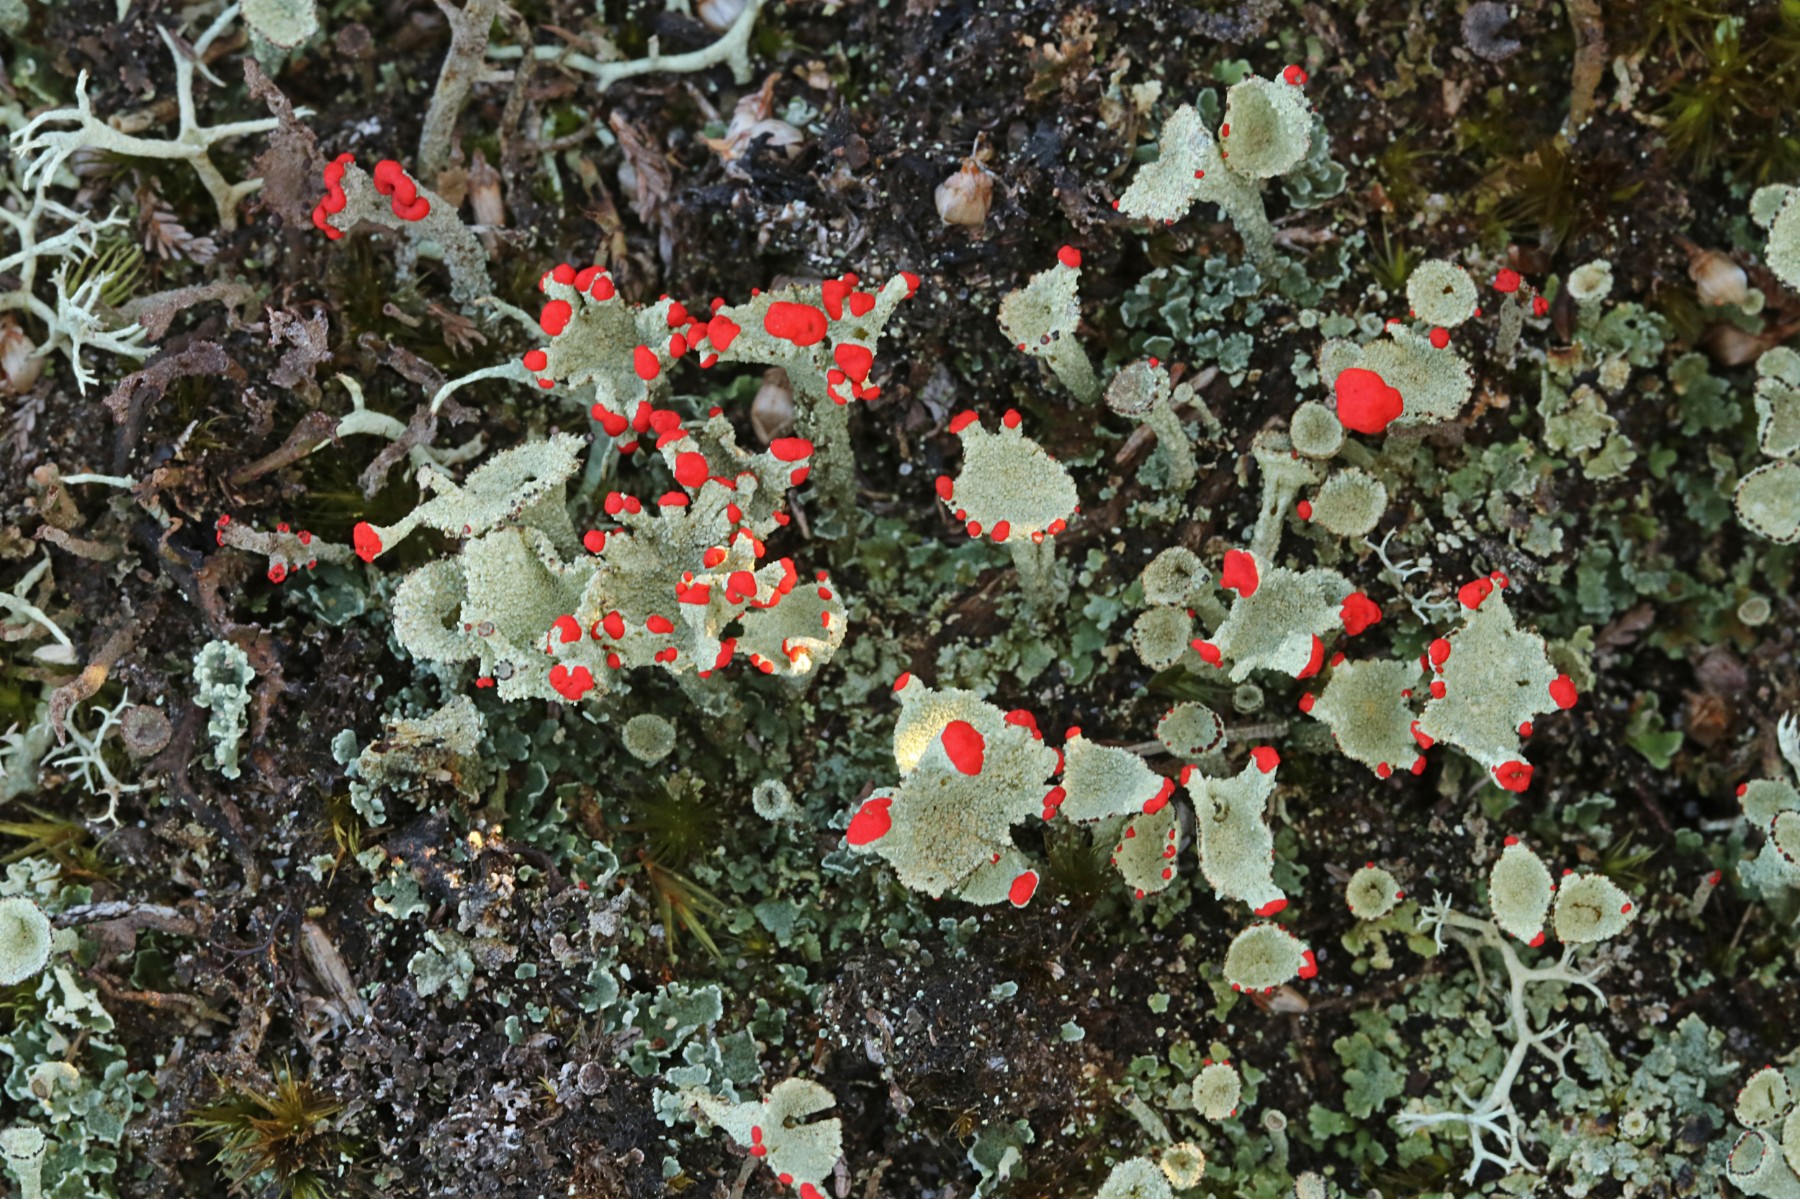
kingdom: Fungi
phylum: Ascomycota
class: Lecanoromycetes
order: Lecanorales
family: Cladoniaceae
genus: Cladonia
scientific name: Cladonia diversa
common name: rød bægerlav
